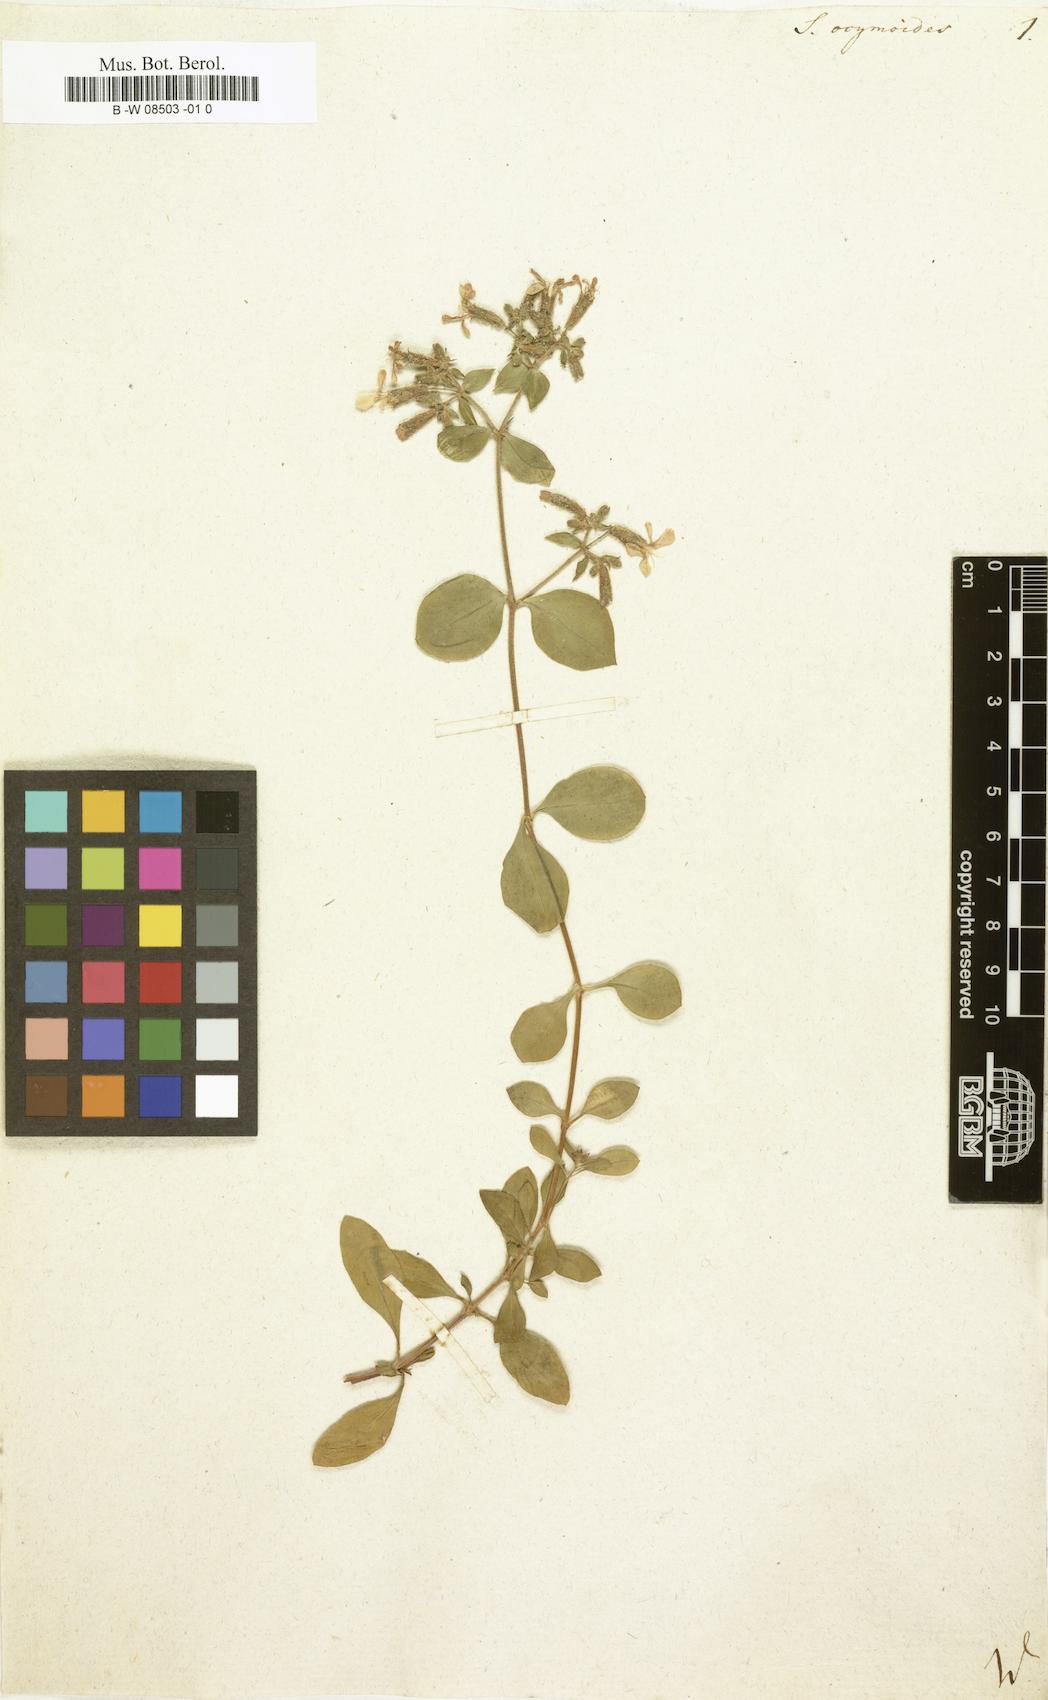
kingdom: Plantae
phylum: Tracheophyta
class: Magnoliopsida
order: Caryophyllales
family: Caryophyllaceae
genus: Saponaria
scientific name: Saponaria ocymoides
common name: Rock soapwort
